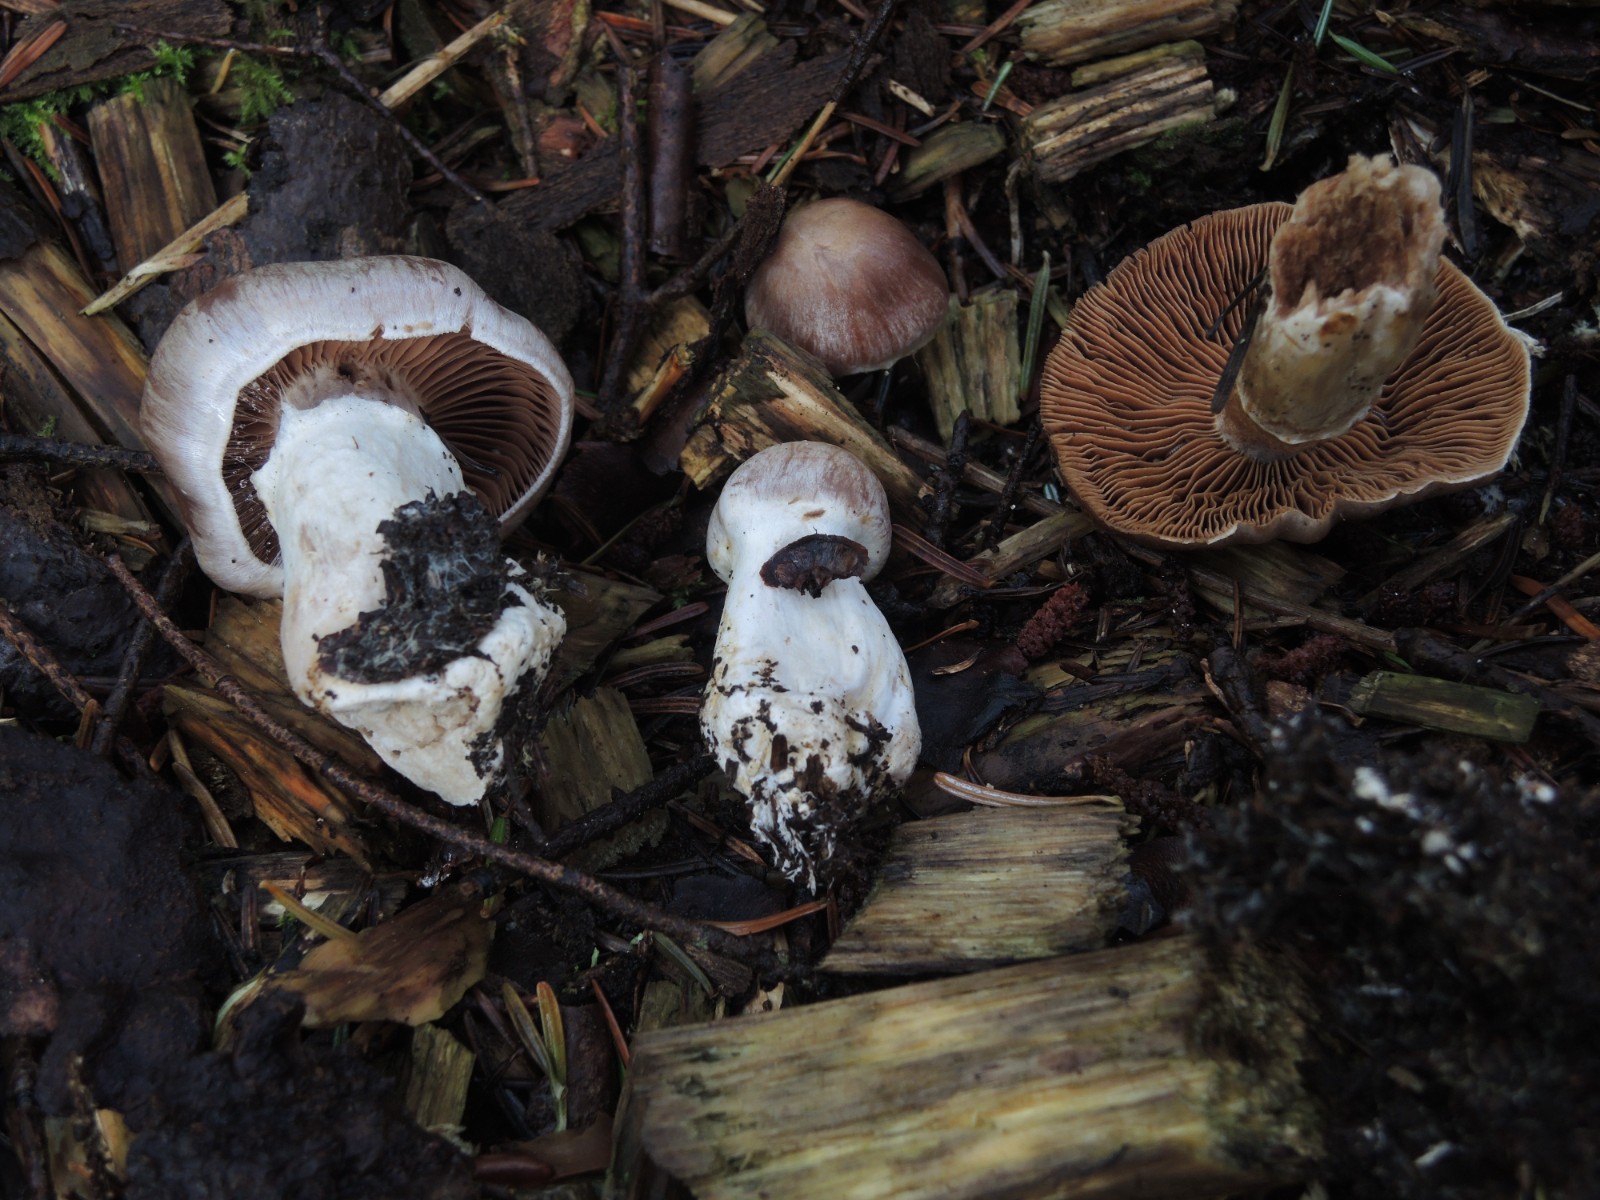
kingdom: Fungi
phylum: Basidiomycota
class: Agaricomycetes
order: Agaricales
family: Cortinariaceae
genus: Cortinarius
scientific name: Cortinarius uxorum
